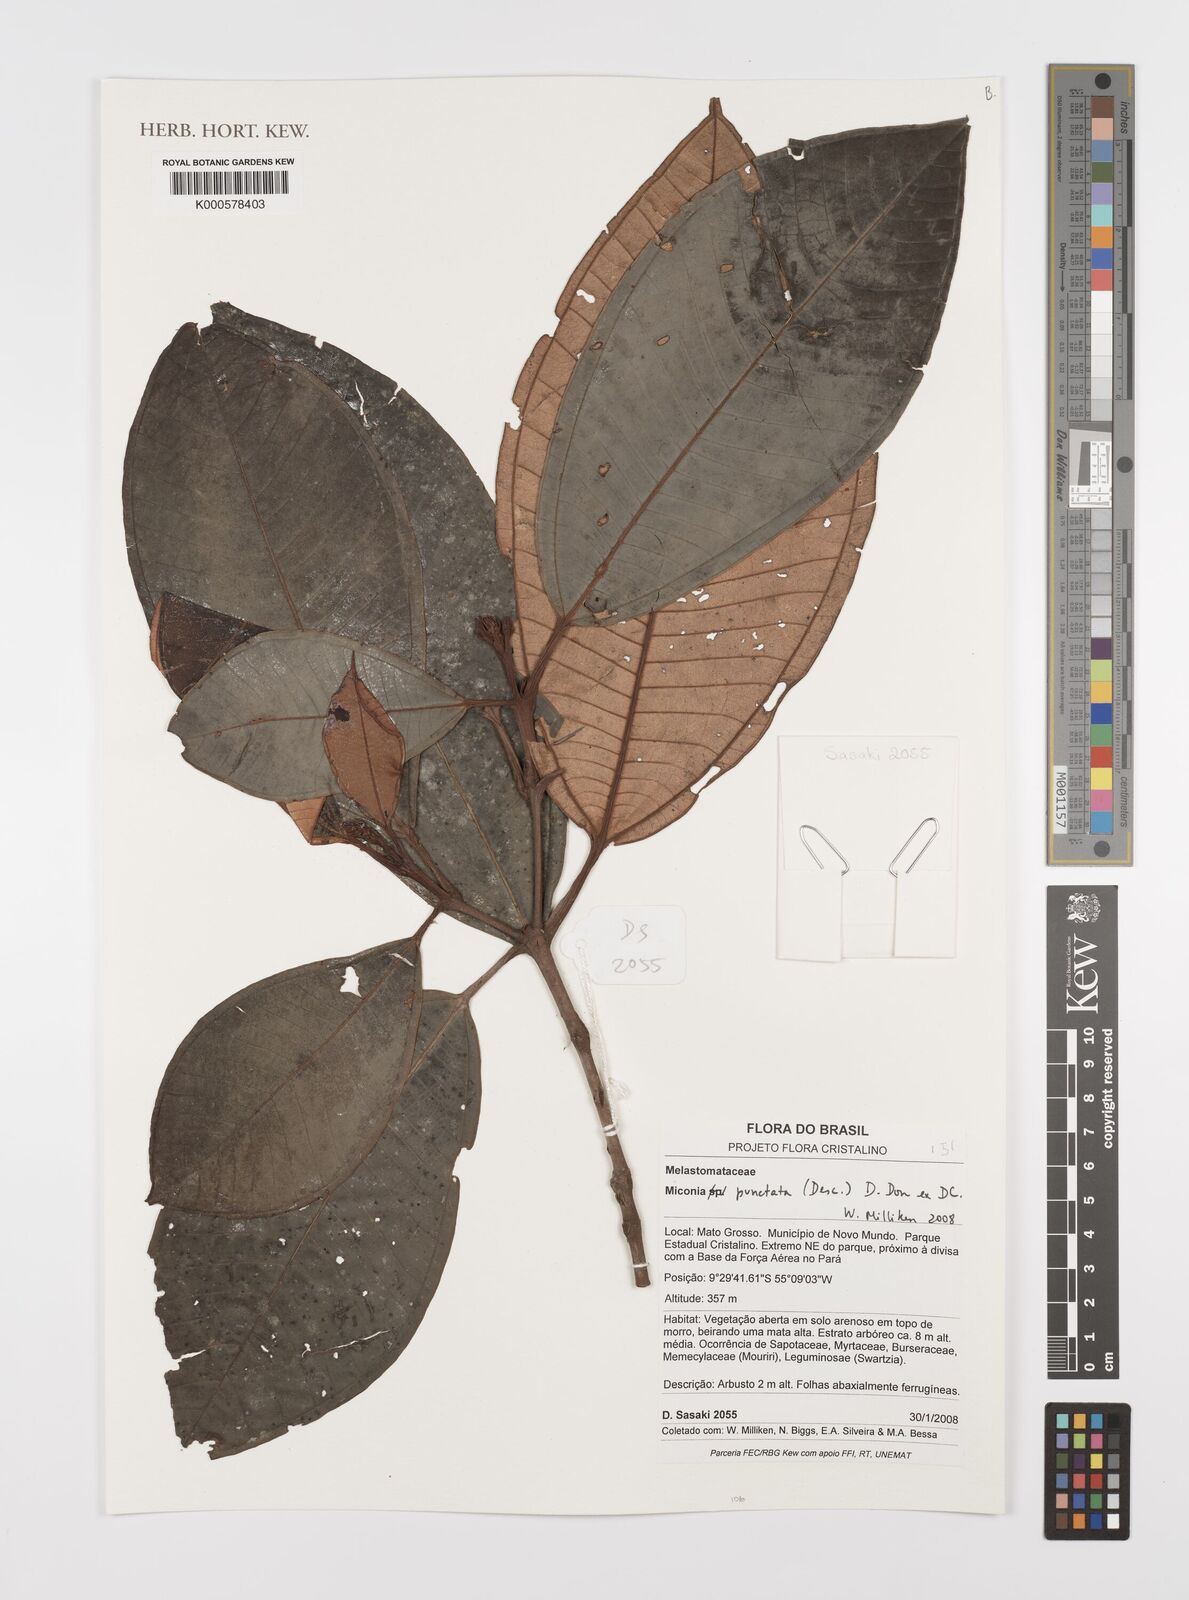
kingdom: Plantae
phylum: Tracheophyta
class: Magnoliopsida
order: Myrtales
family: Melastomataceae
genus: Miconia
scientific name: Miconia
